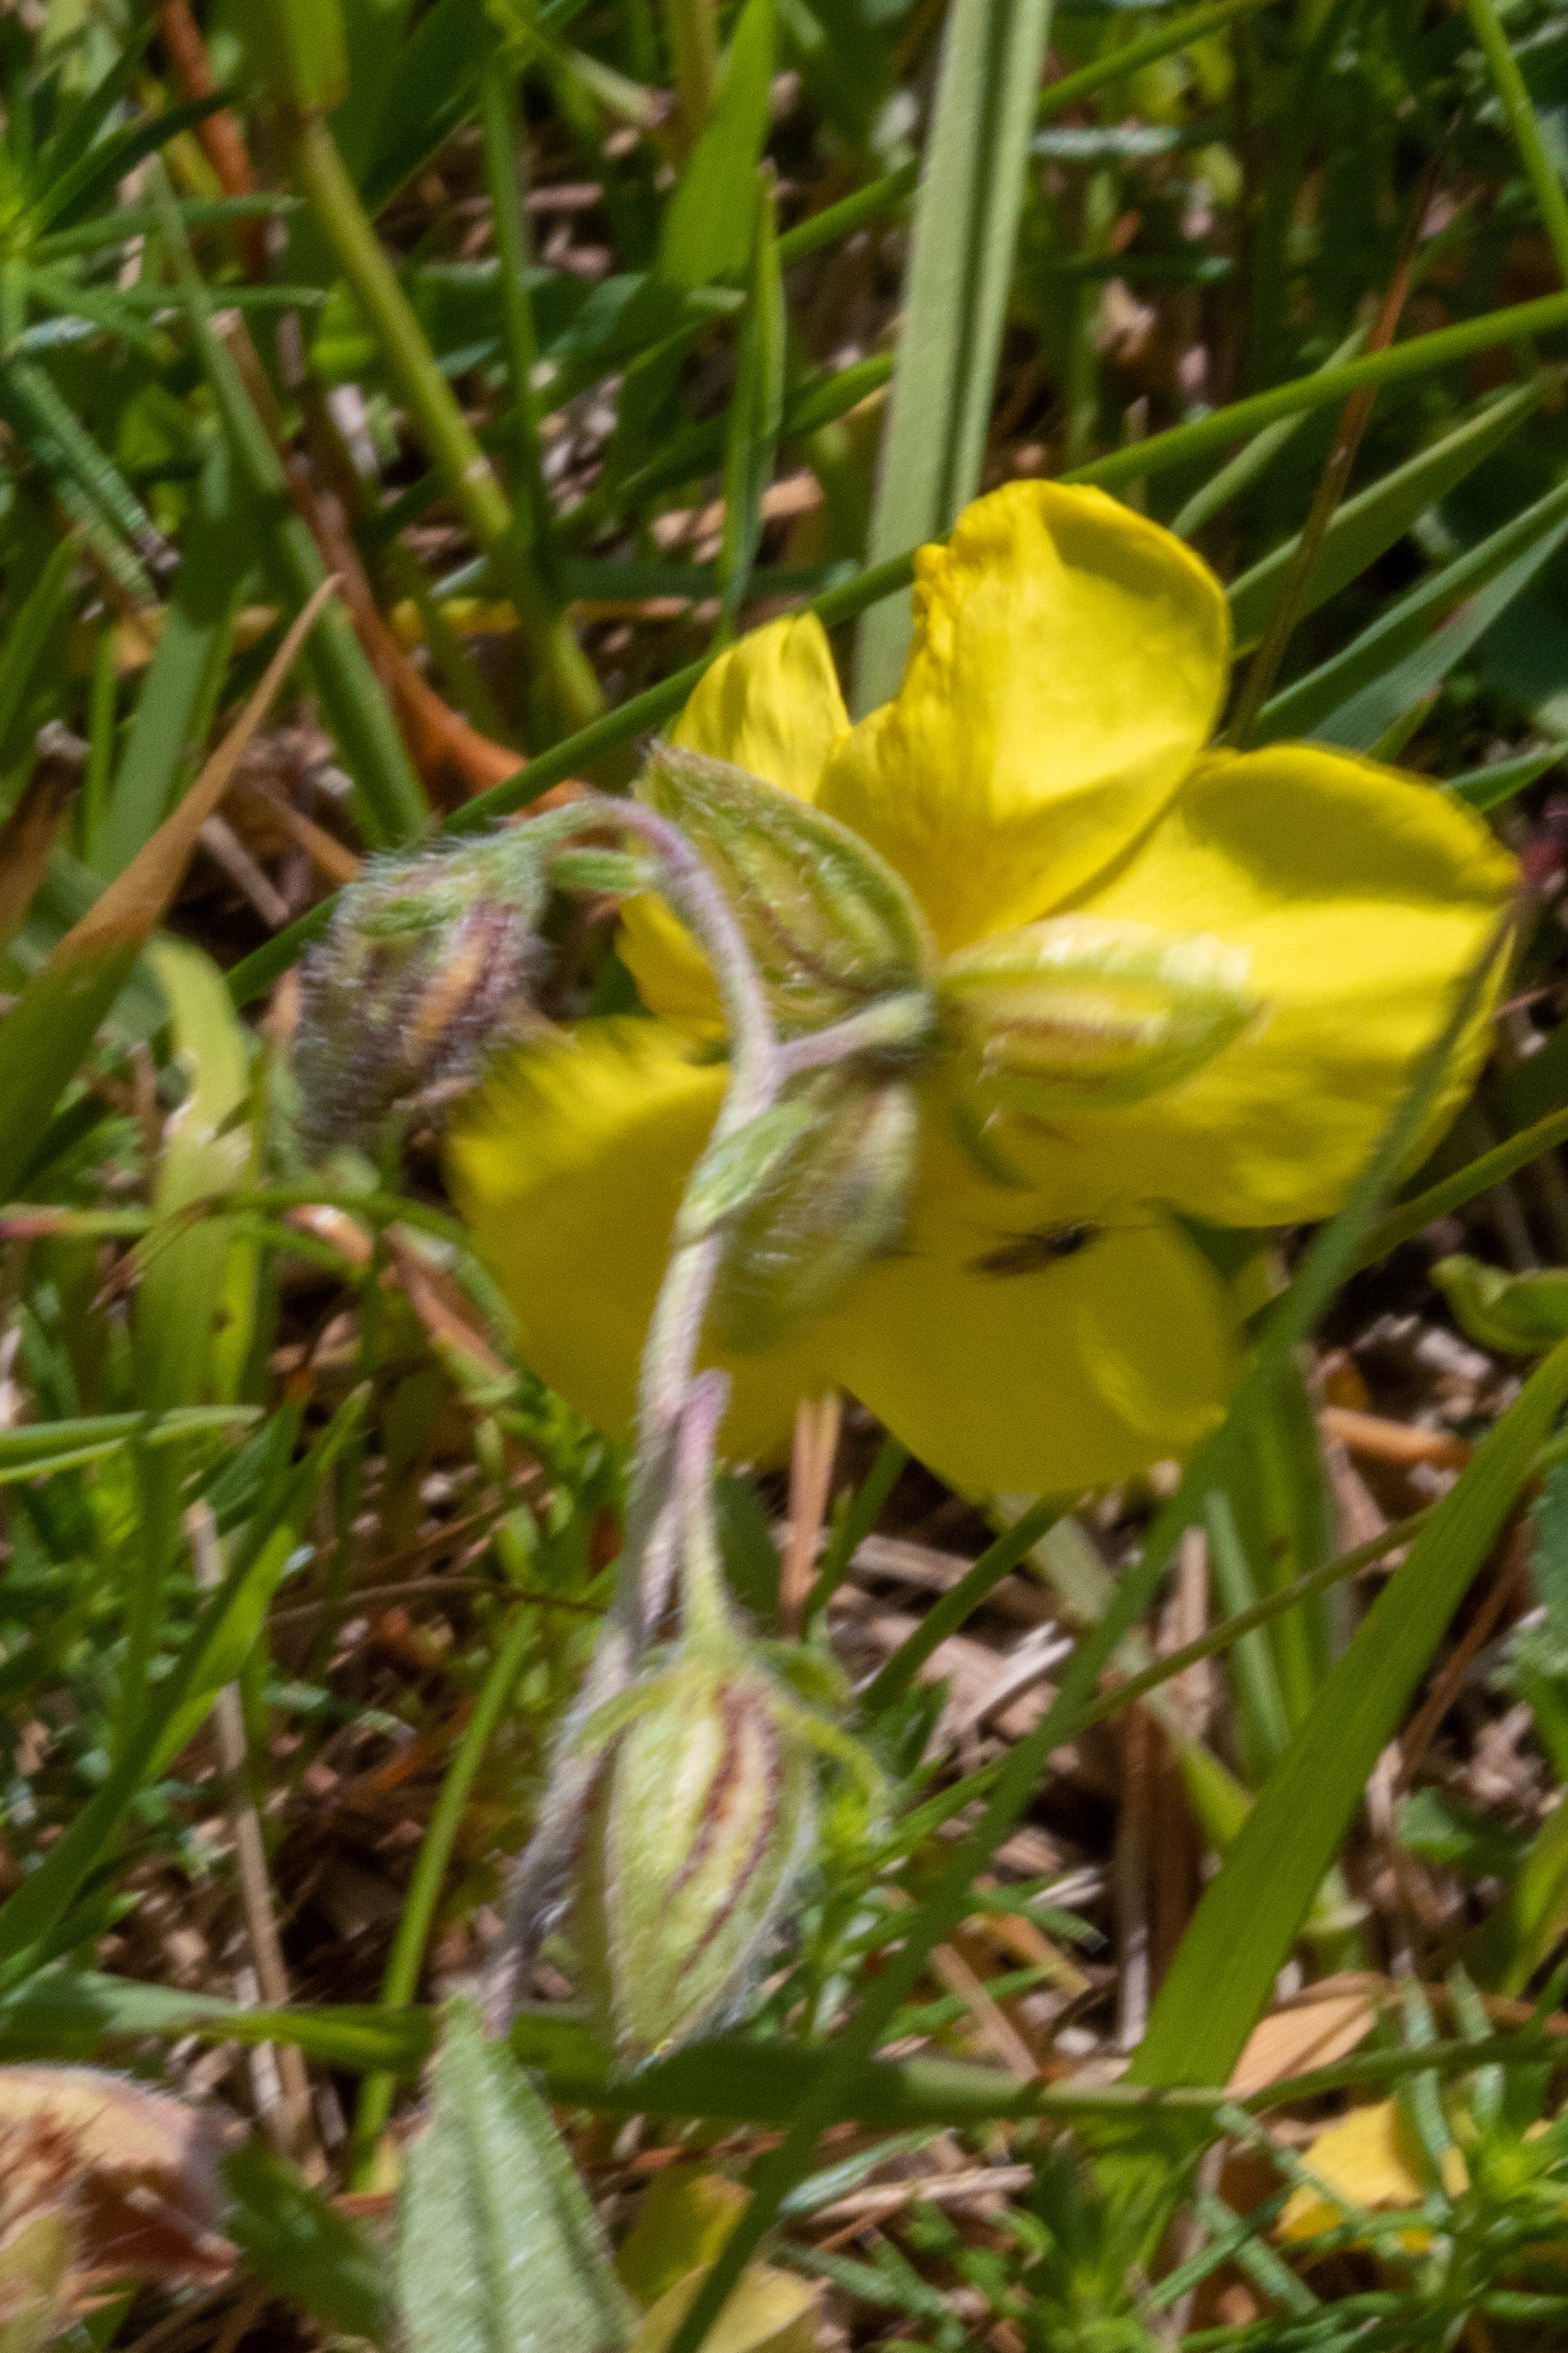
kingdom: Plantae
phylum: Tracheophyta
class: Magnoliopsida
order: Malvales
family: Cistaceae
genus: Helianthemum
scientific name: Helianthemum nummularium
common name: Soløje
